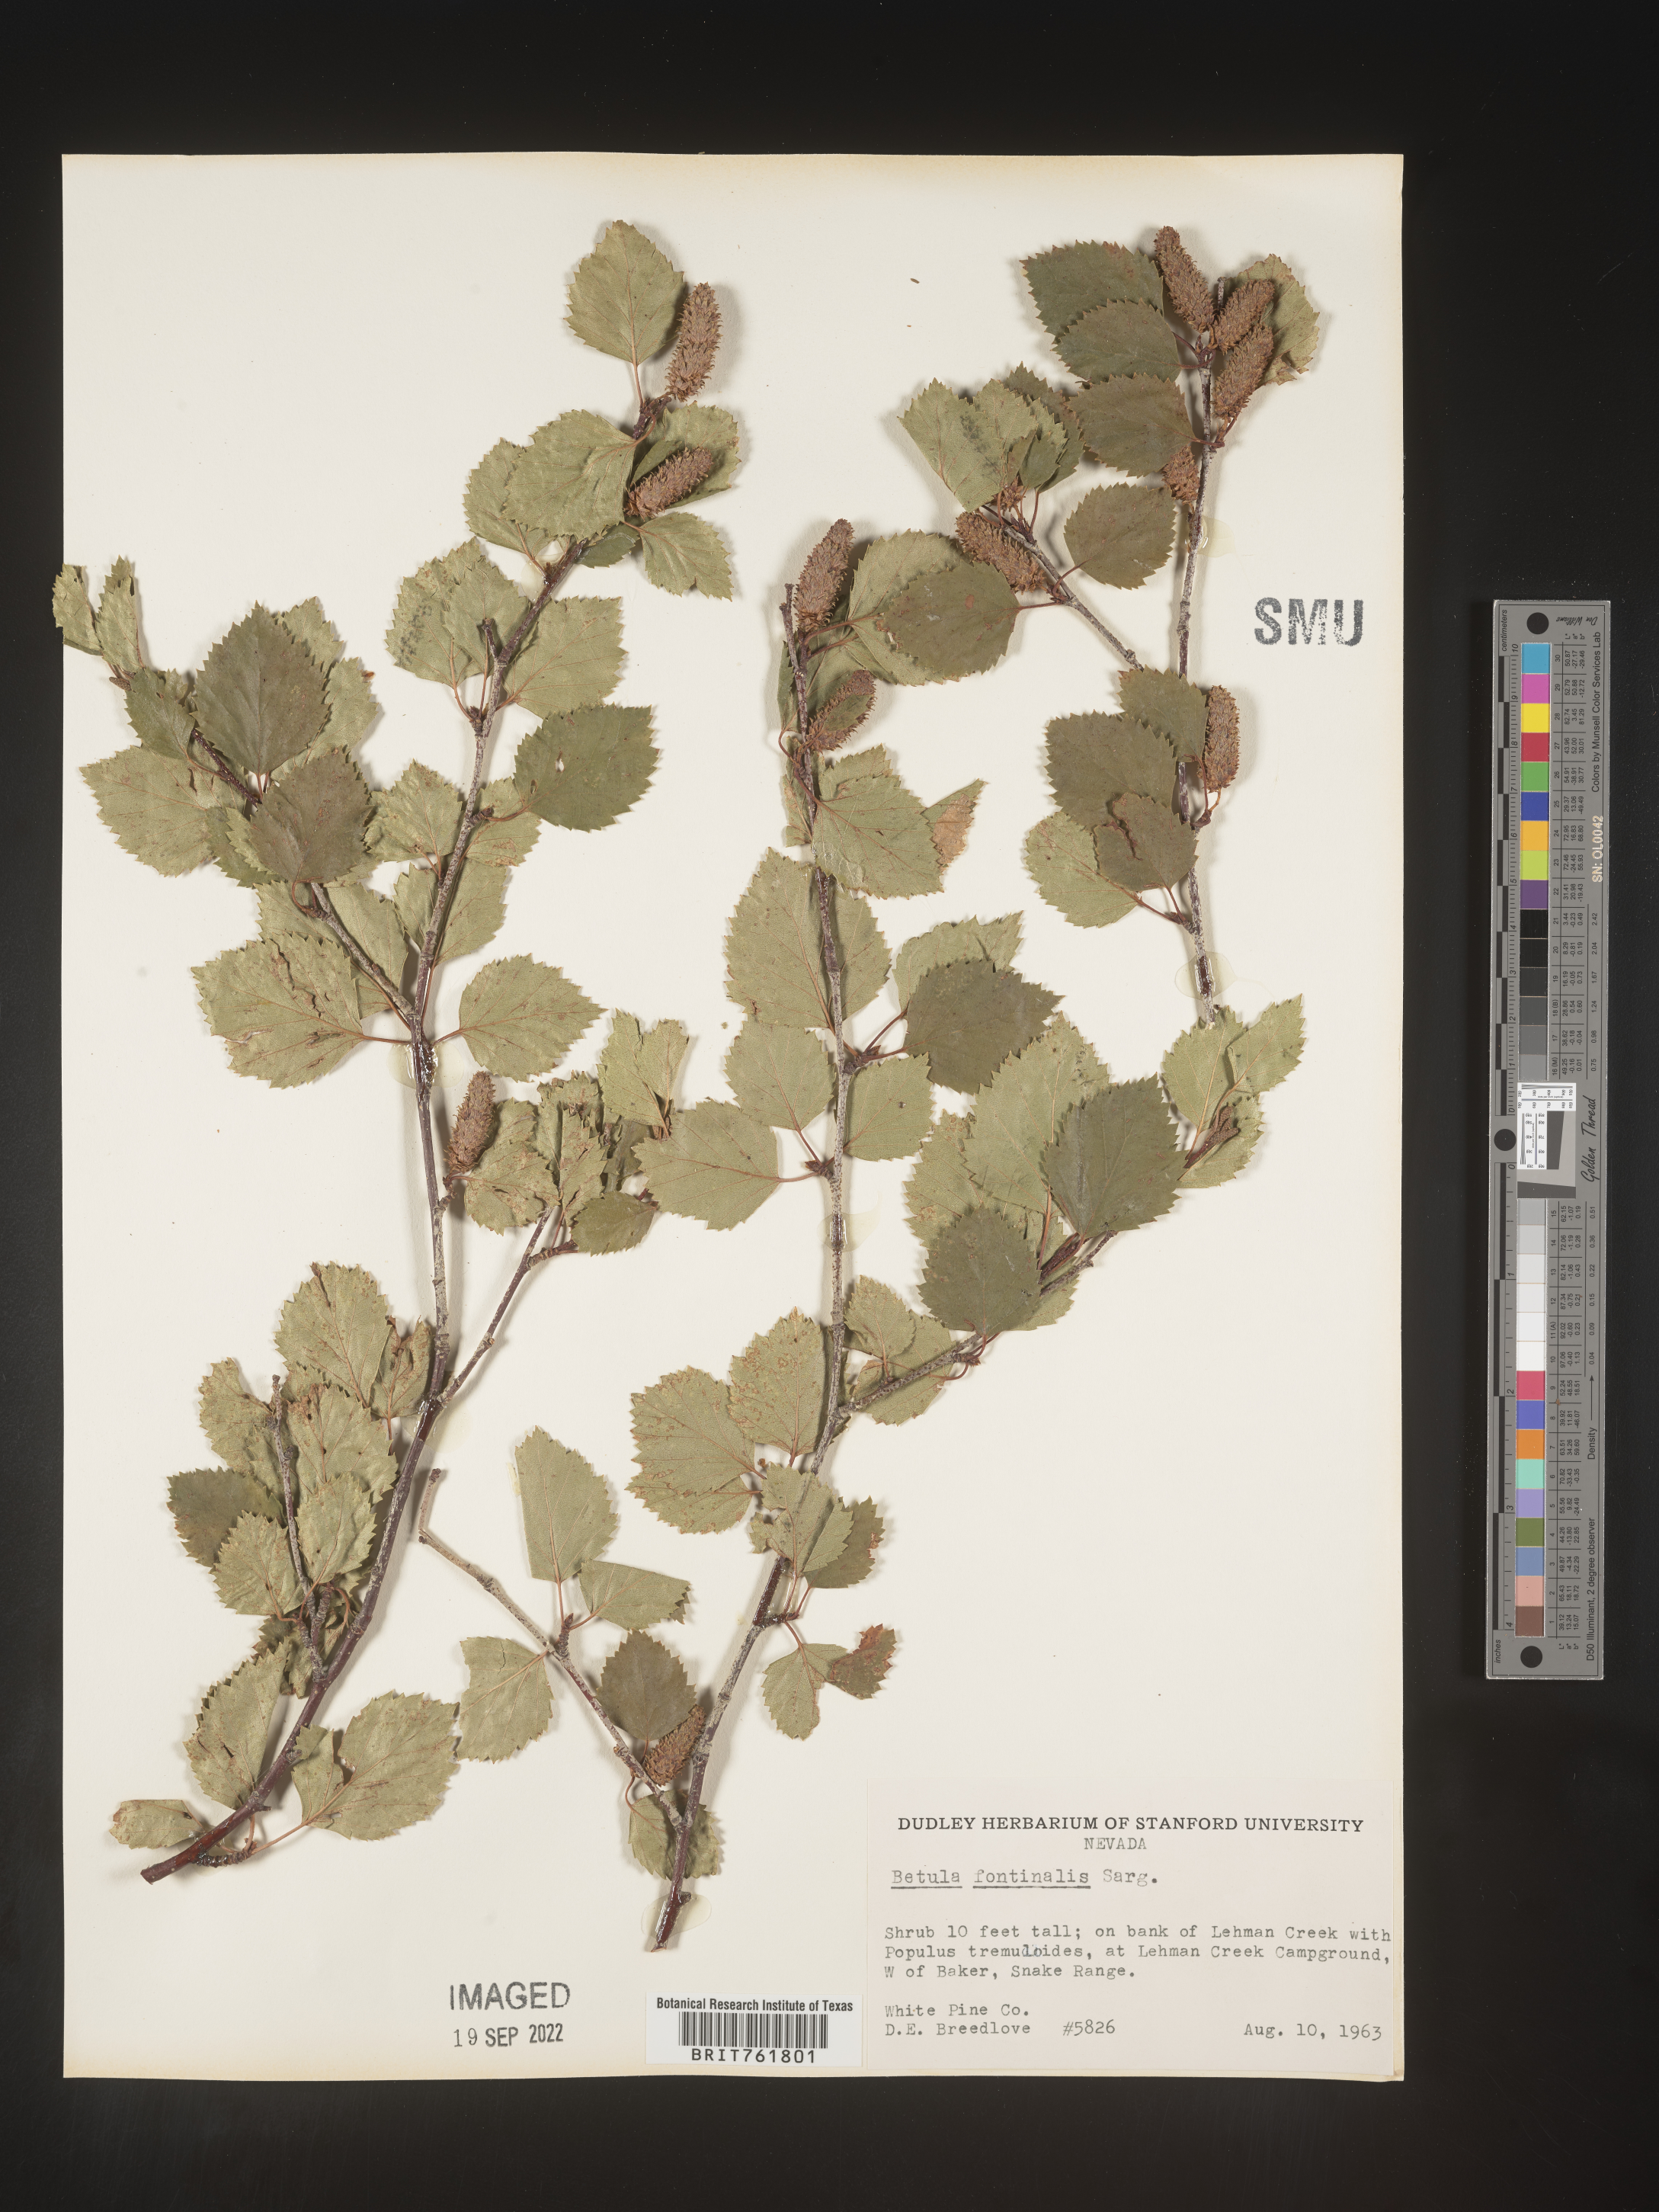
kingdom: Plantae
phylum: Tracheophyta
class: Magnoliopsida
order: Fagales
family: Betulaceae
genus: Betula
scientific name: Betula occidentalis
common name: River birch
